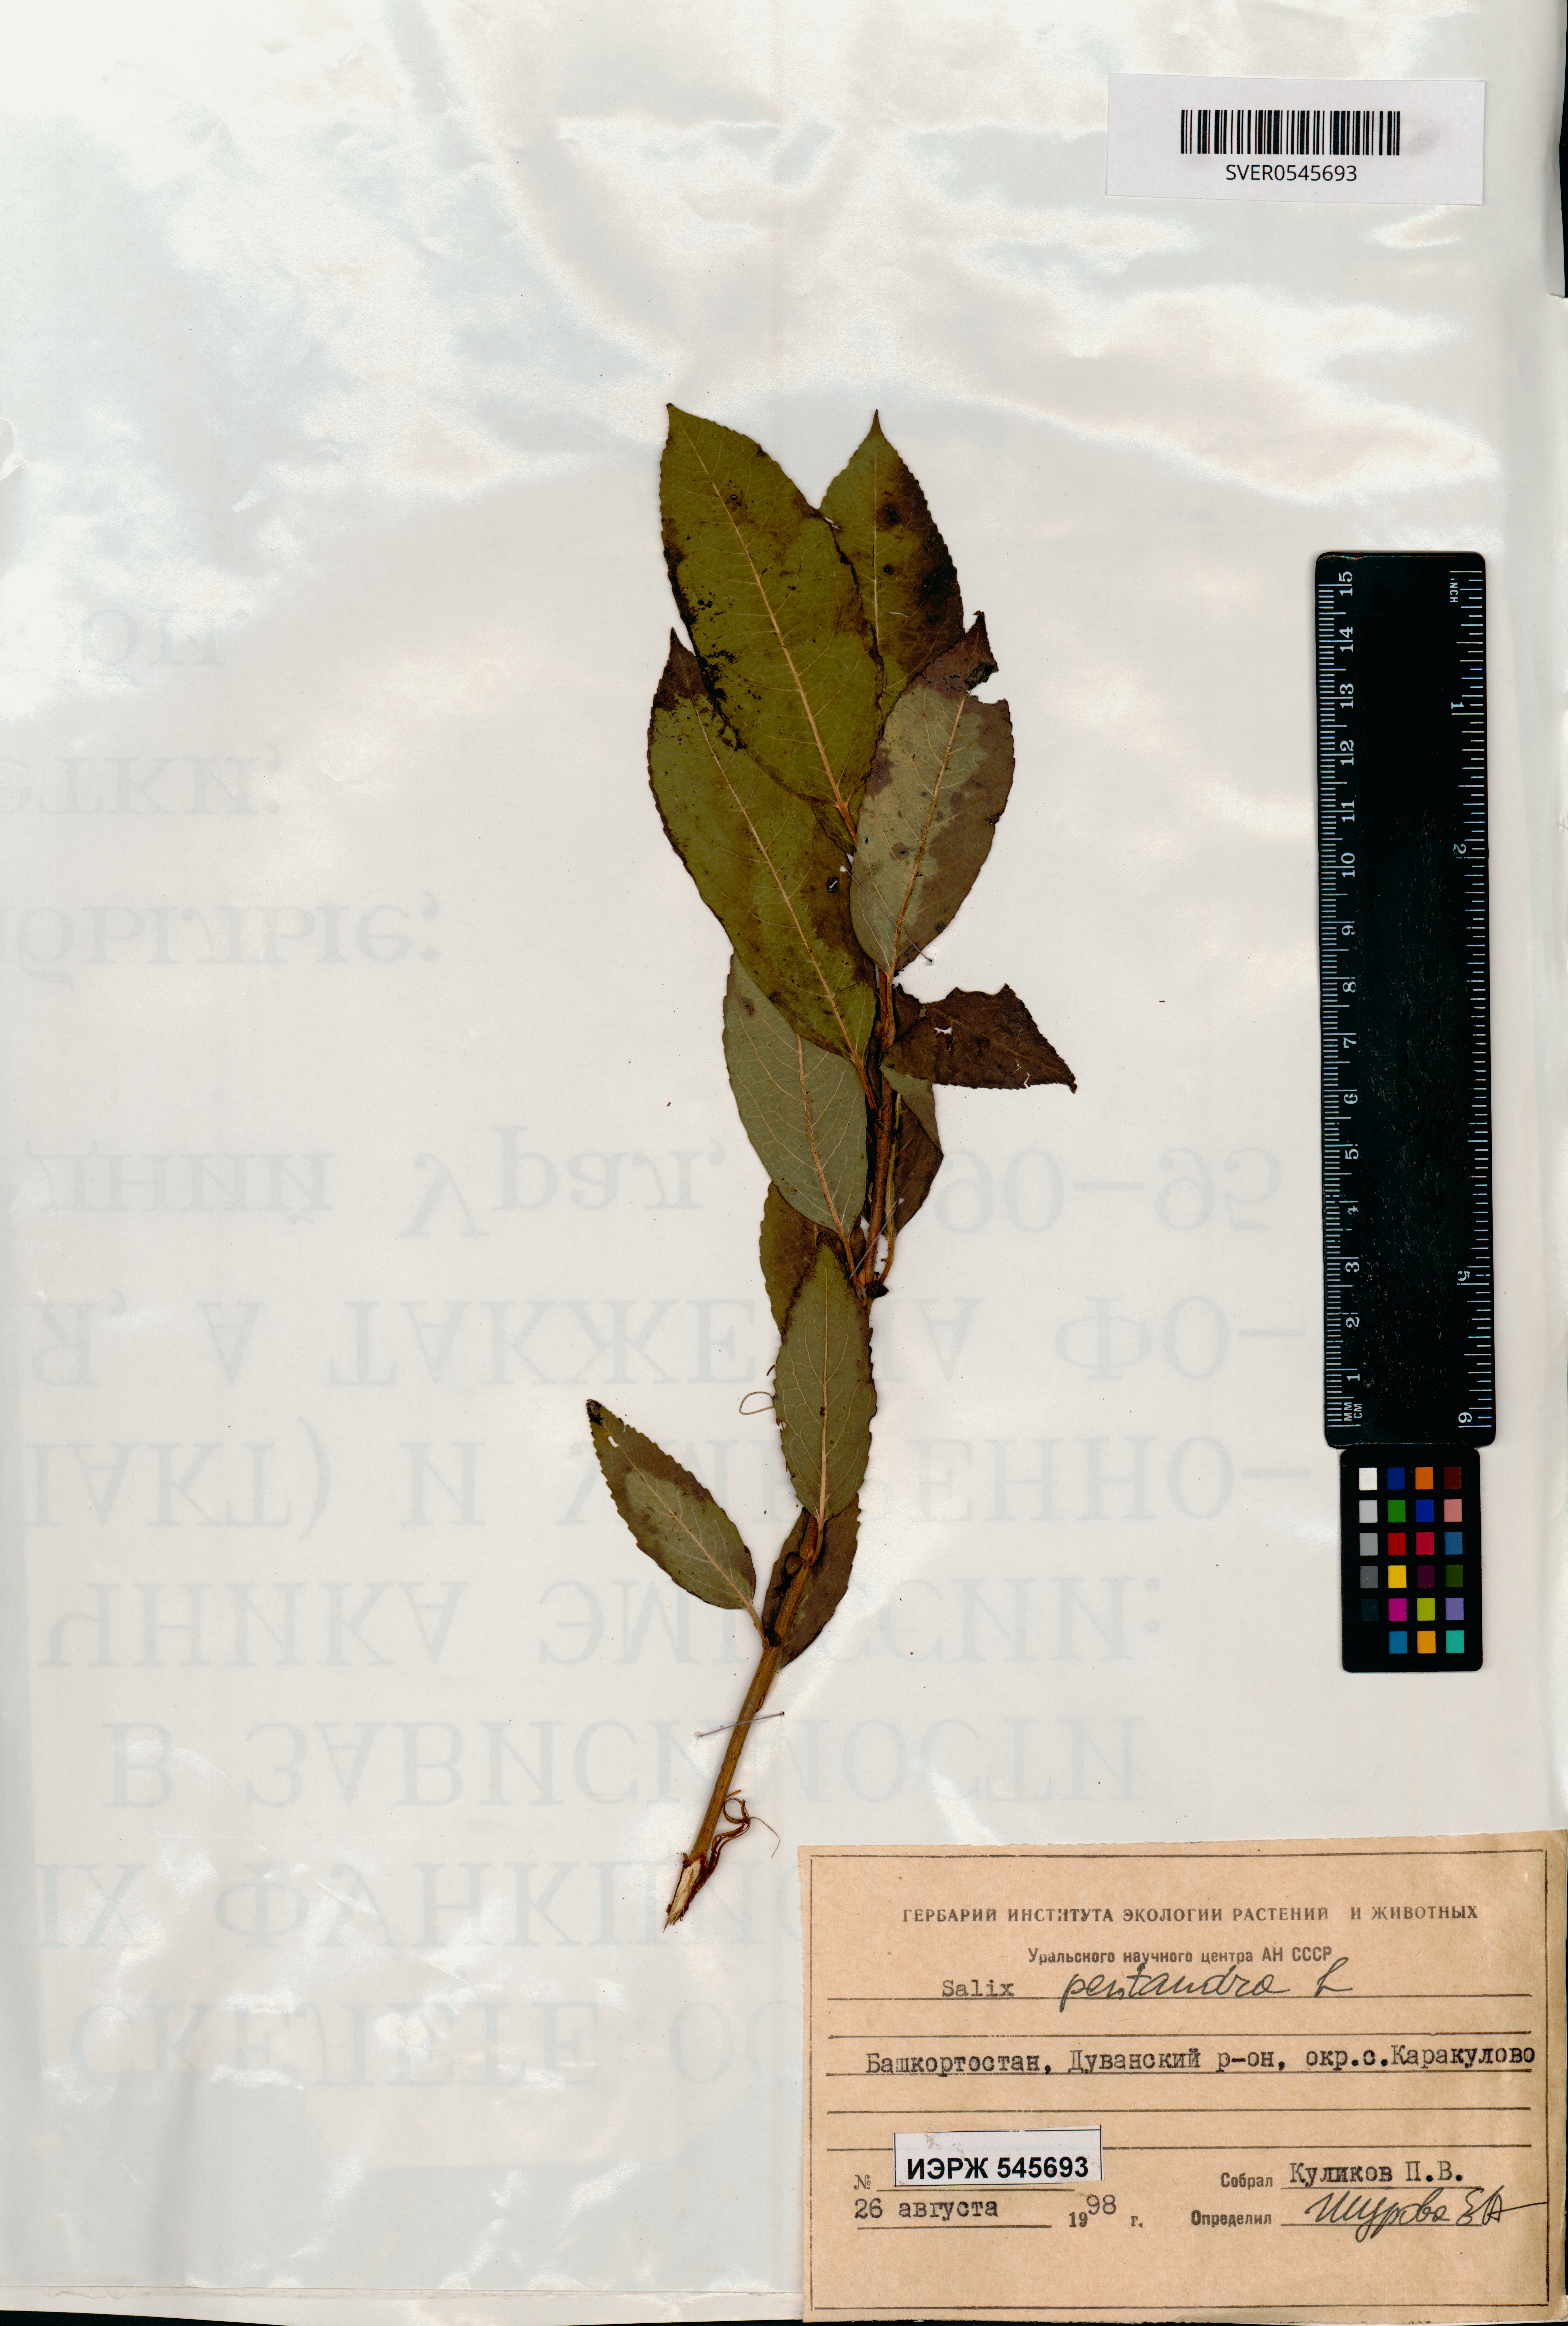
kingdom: Plantae
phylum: Tracheophyta
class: Magnoliopsida
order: Malpighiales
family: Salicaceae
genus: Salix
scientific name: Salix pentandra
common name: Bay willow
